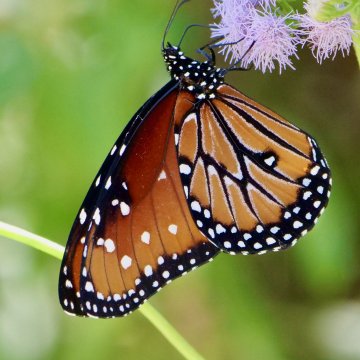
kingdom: Animalia
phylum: Arthropoda
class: Insecta
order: Lepidoptera
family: Nymphalidae
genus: Danaus
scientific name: Danaus gilippus
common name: Queen
